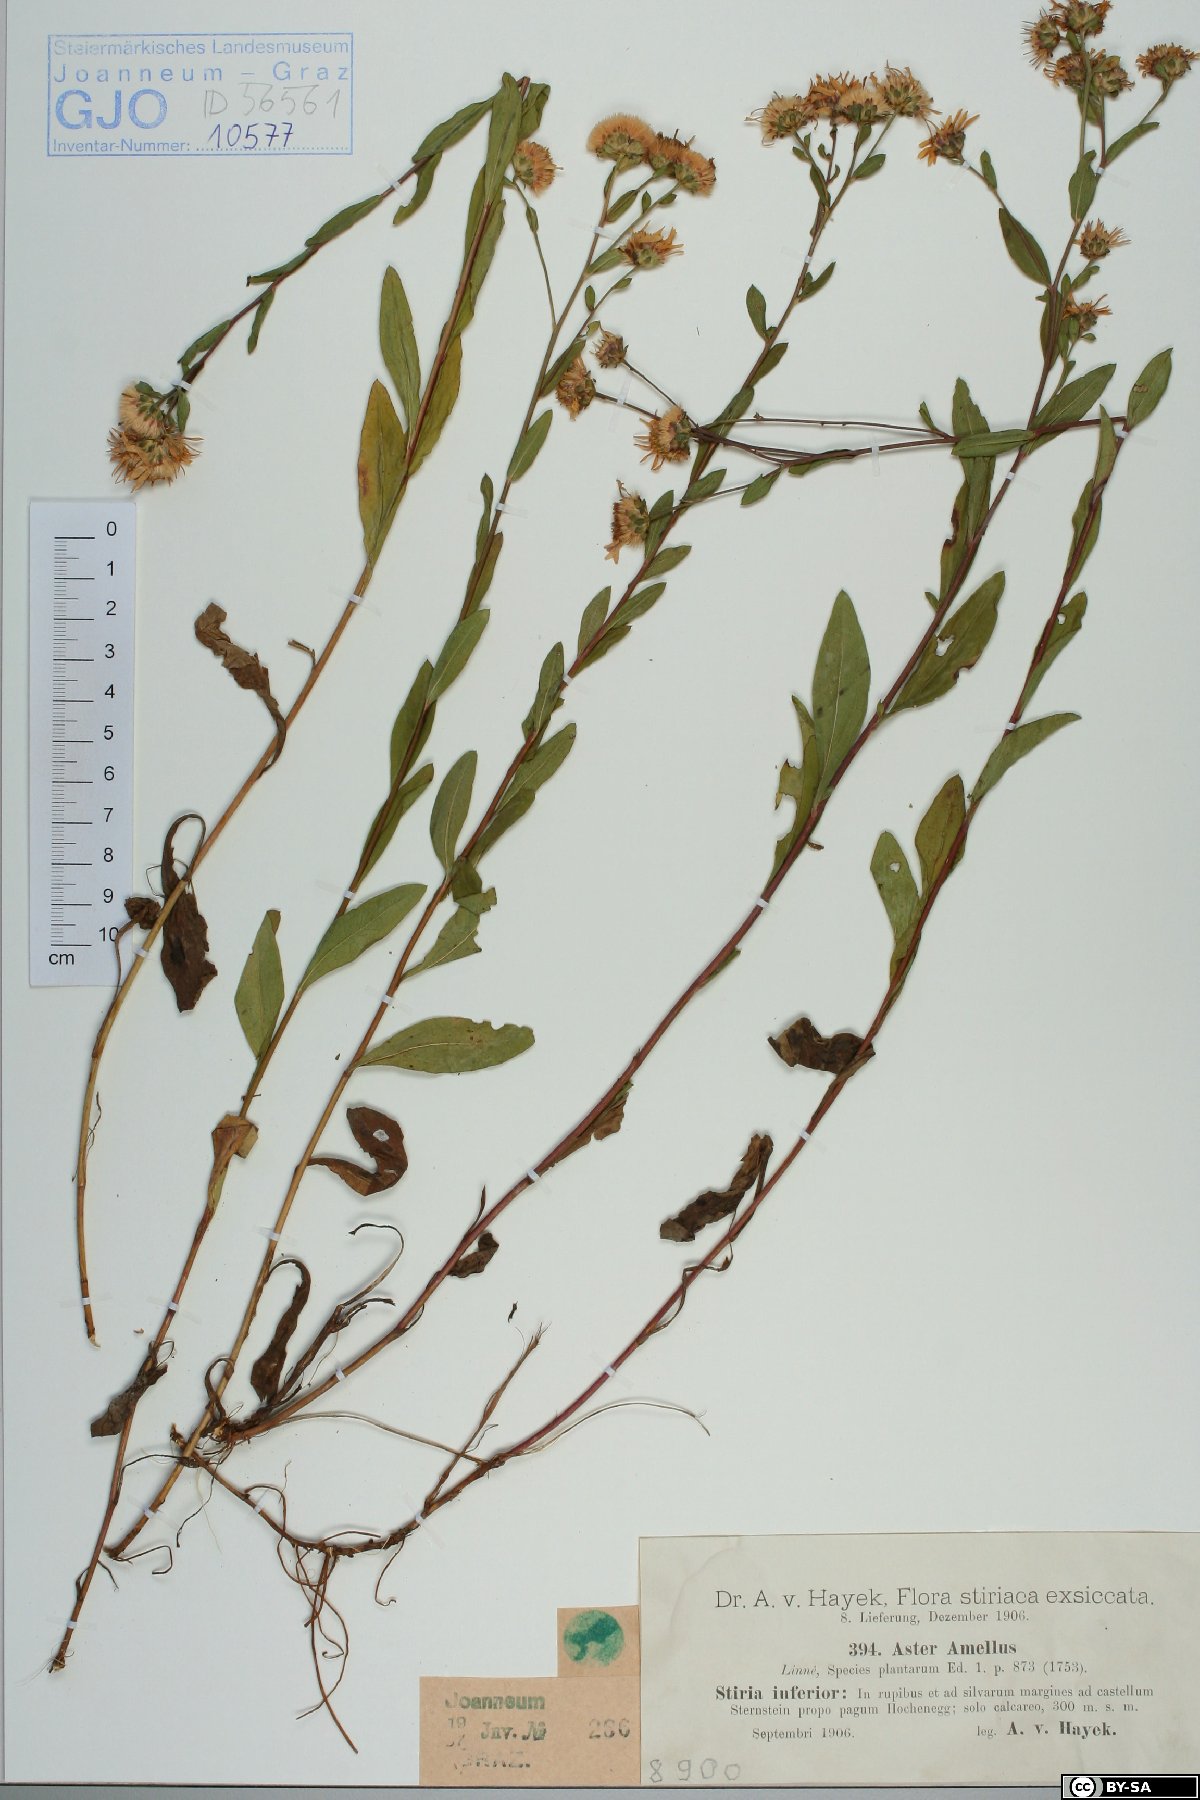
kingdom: Plantae
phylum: Tracheophyta
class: Magnoliopsida
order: Asterales
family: Asteraceae
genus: Aster
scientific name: Aster amellus
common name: European michaelmas daisy
